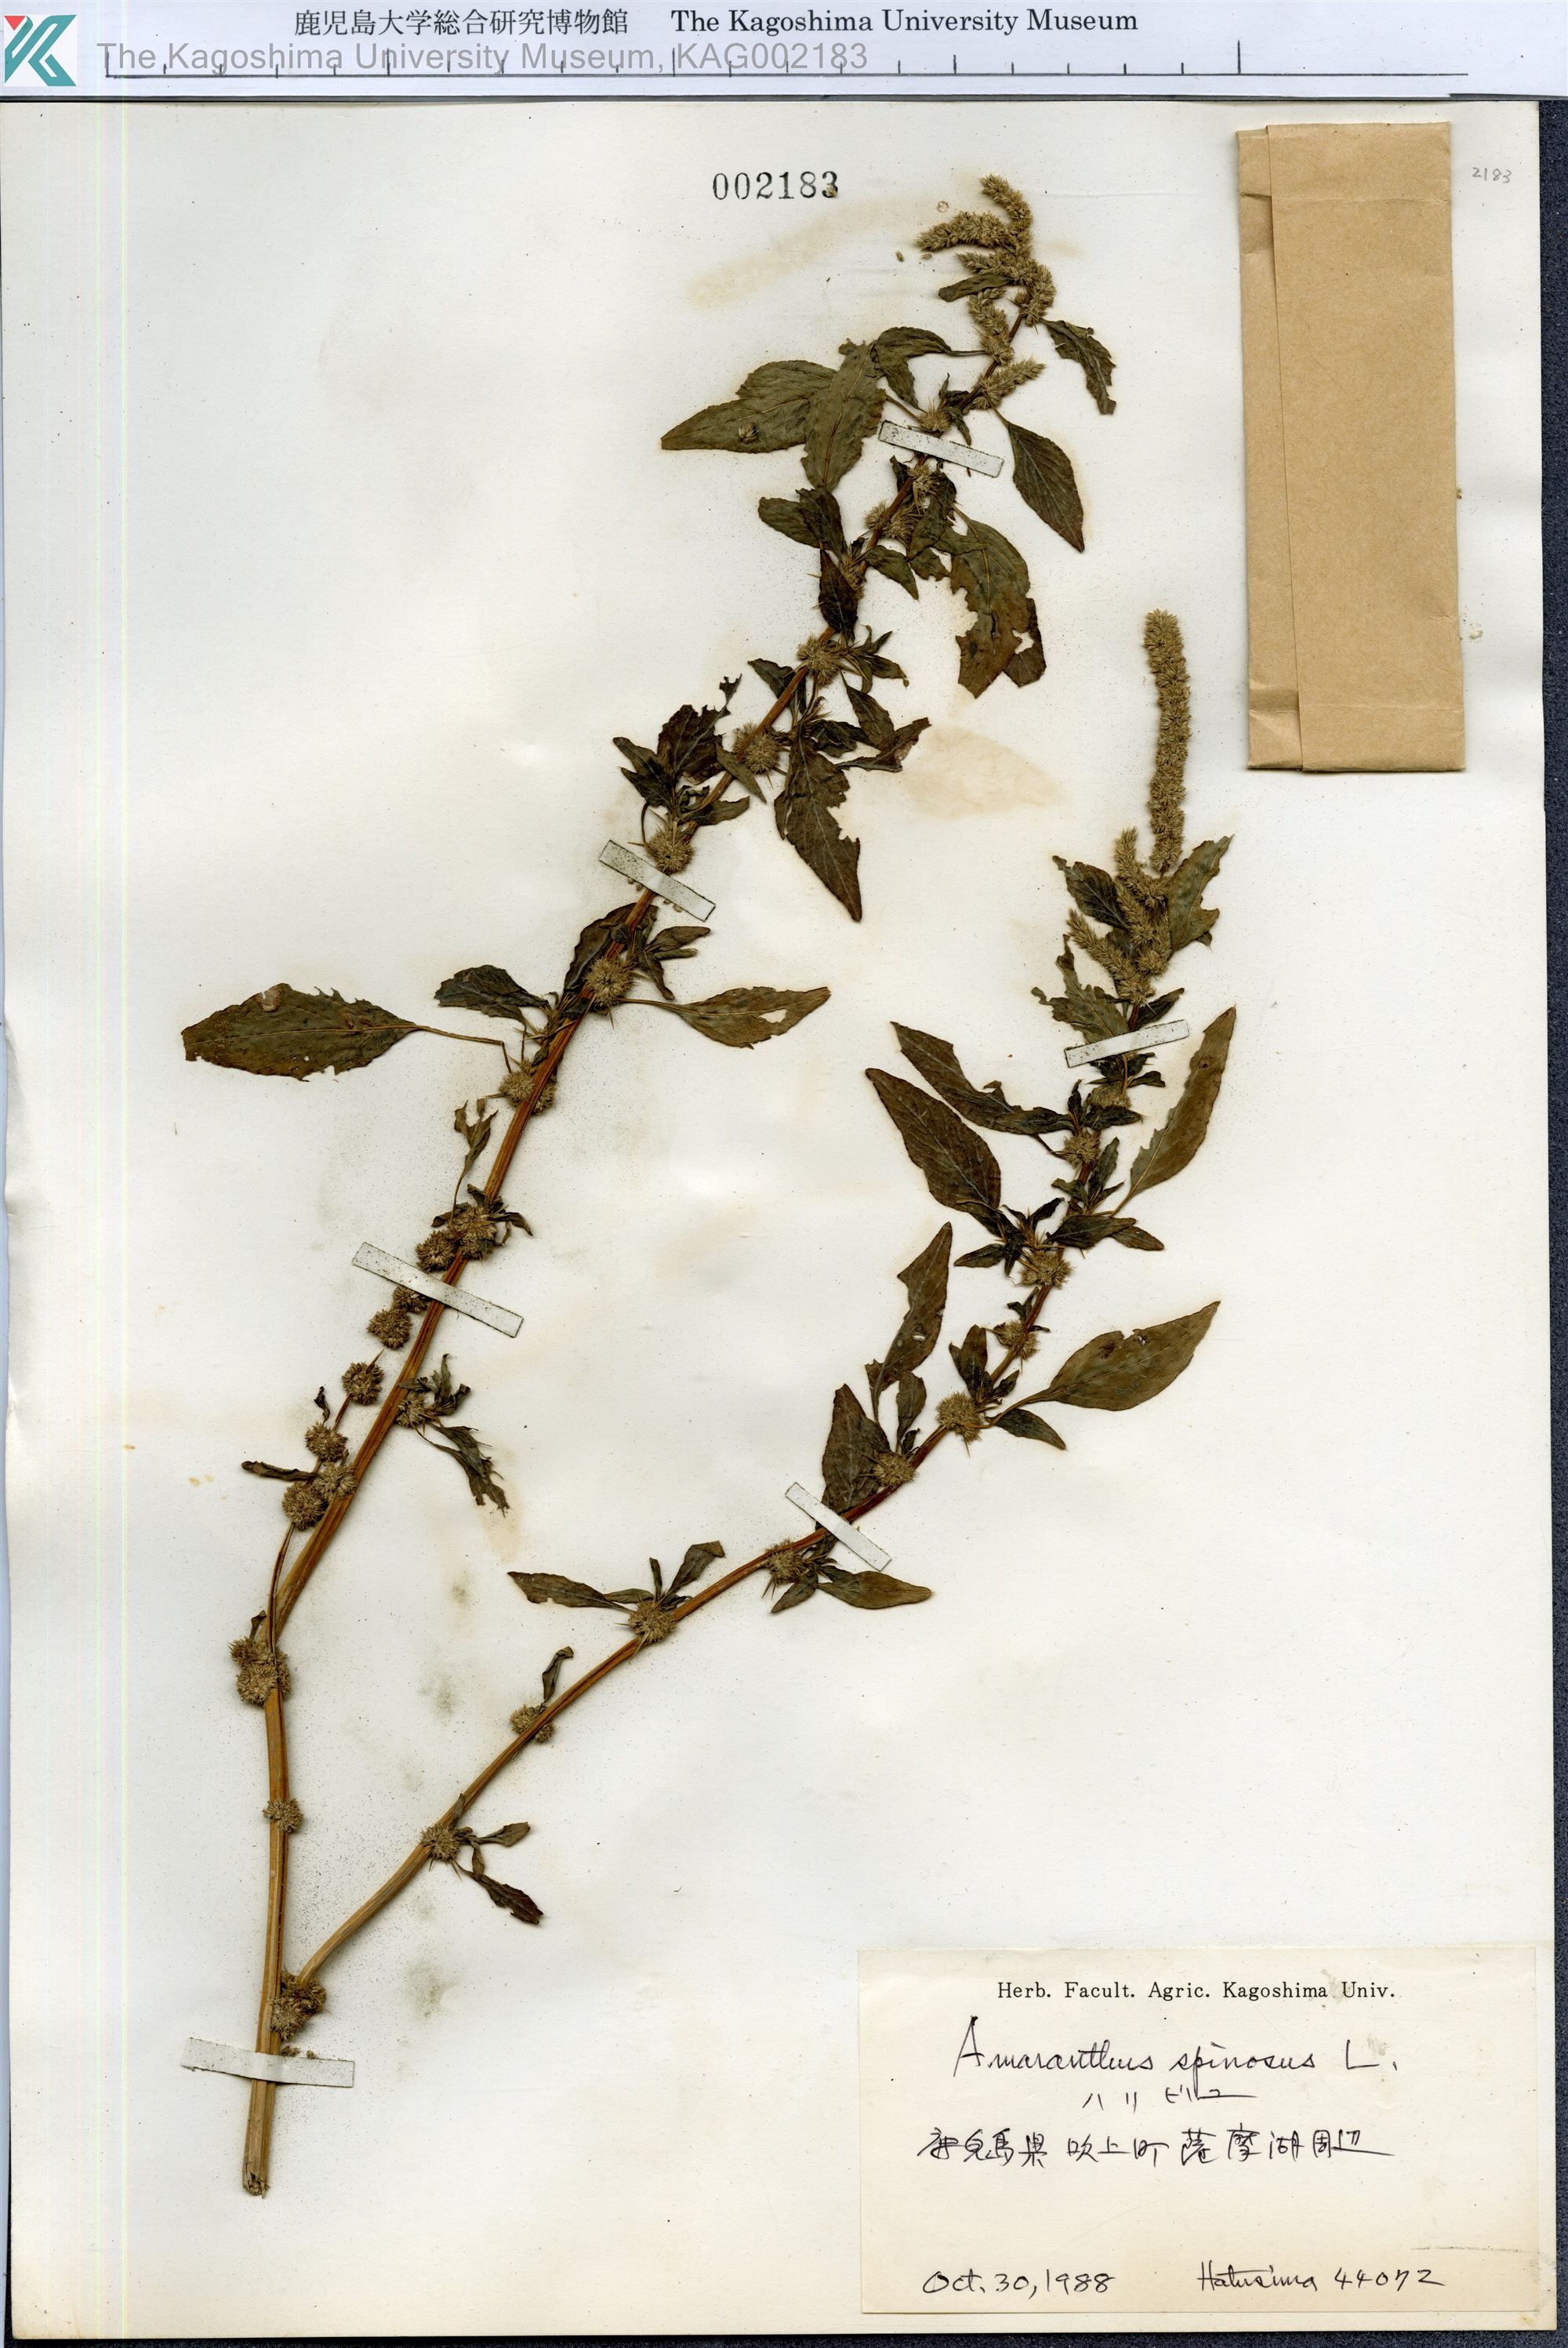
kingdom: Plantae
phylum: Tracheophyta
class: Magnoliopsida
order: Caryophyllales
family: Amaranthaceae
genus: Amaranthus
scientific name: Amaranthus spinosus
